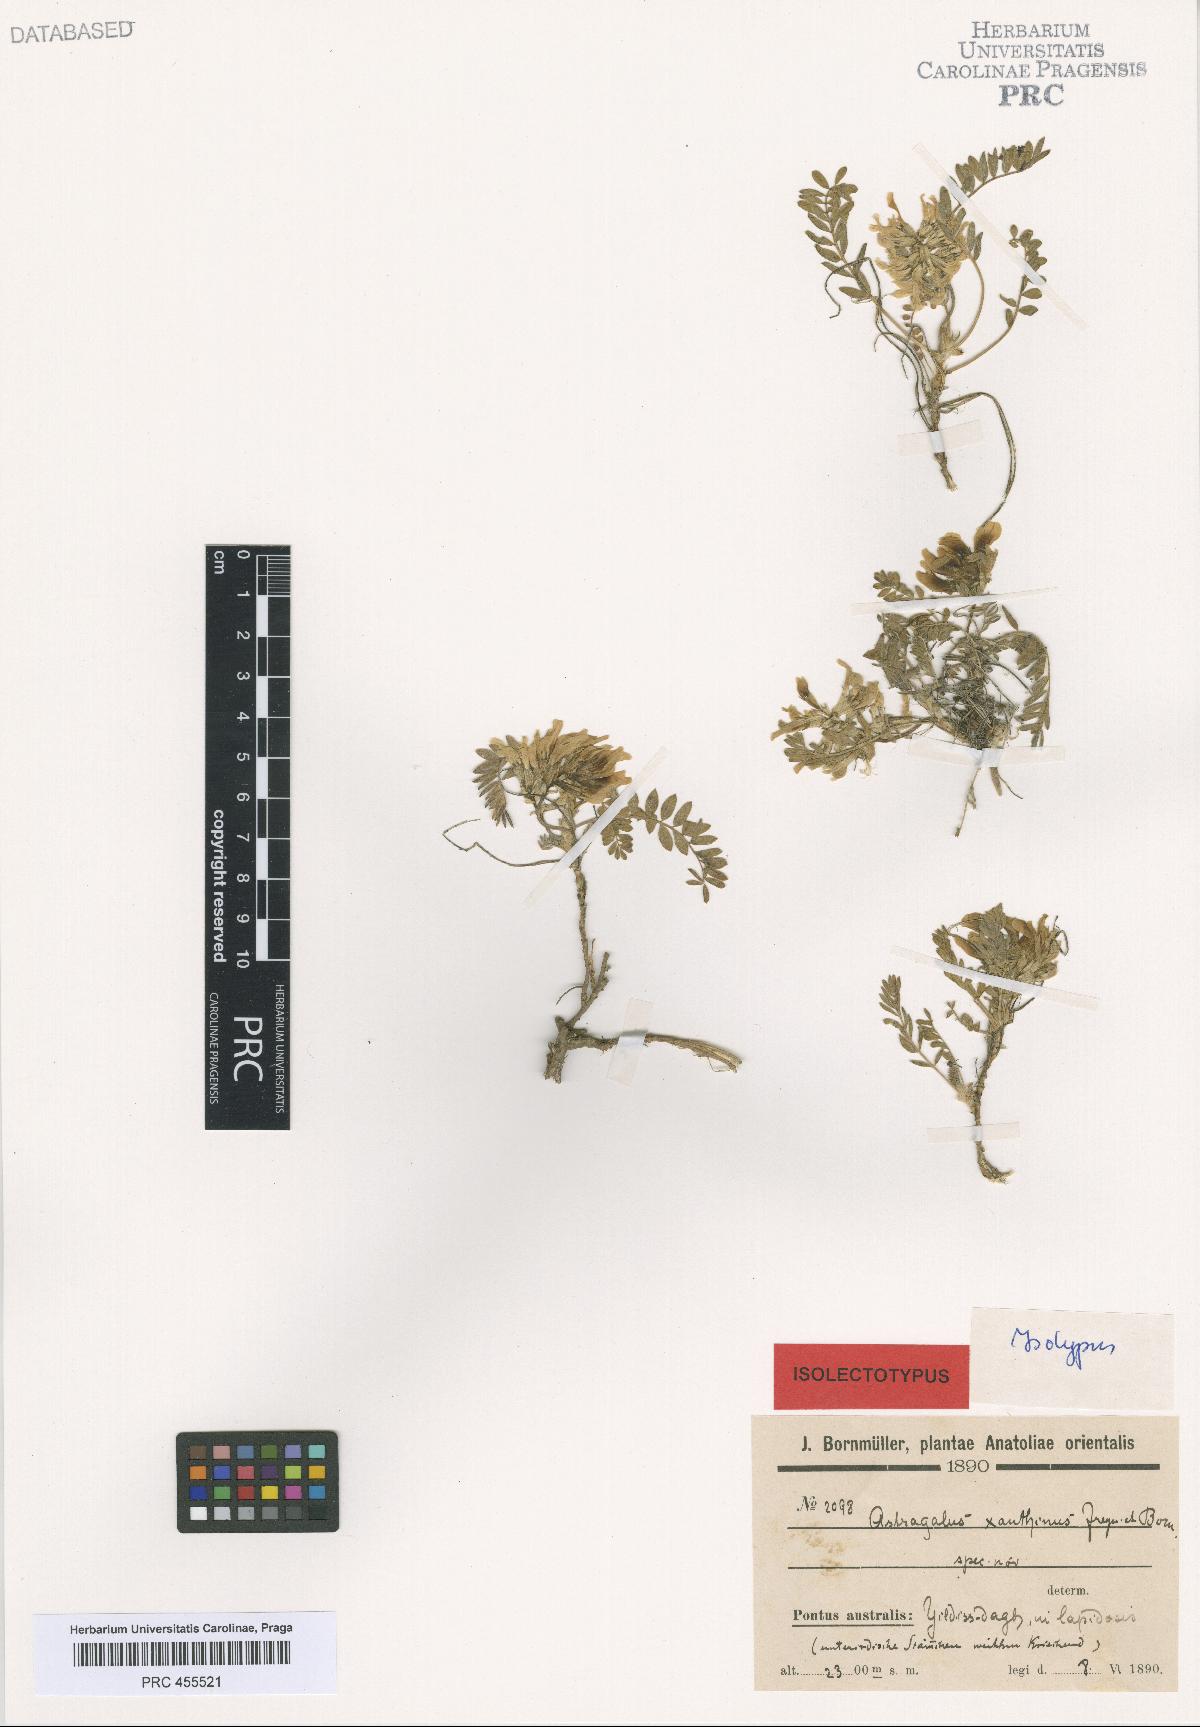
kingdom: Plantae
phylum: Tracheophyta
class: Magnoliopsida
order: Fabales
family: Fabaceae
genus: Astragalus
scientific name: Astragalus fragrans
